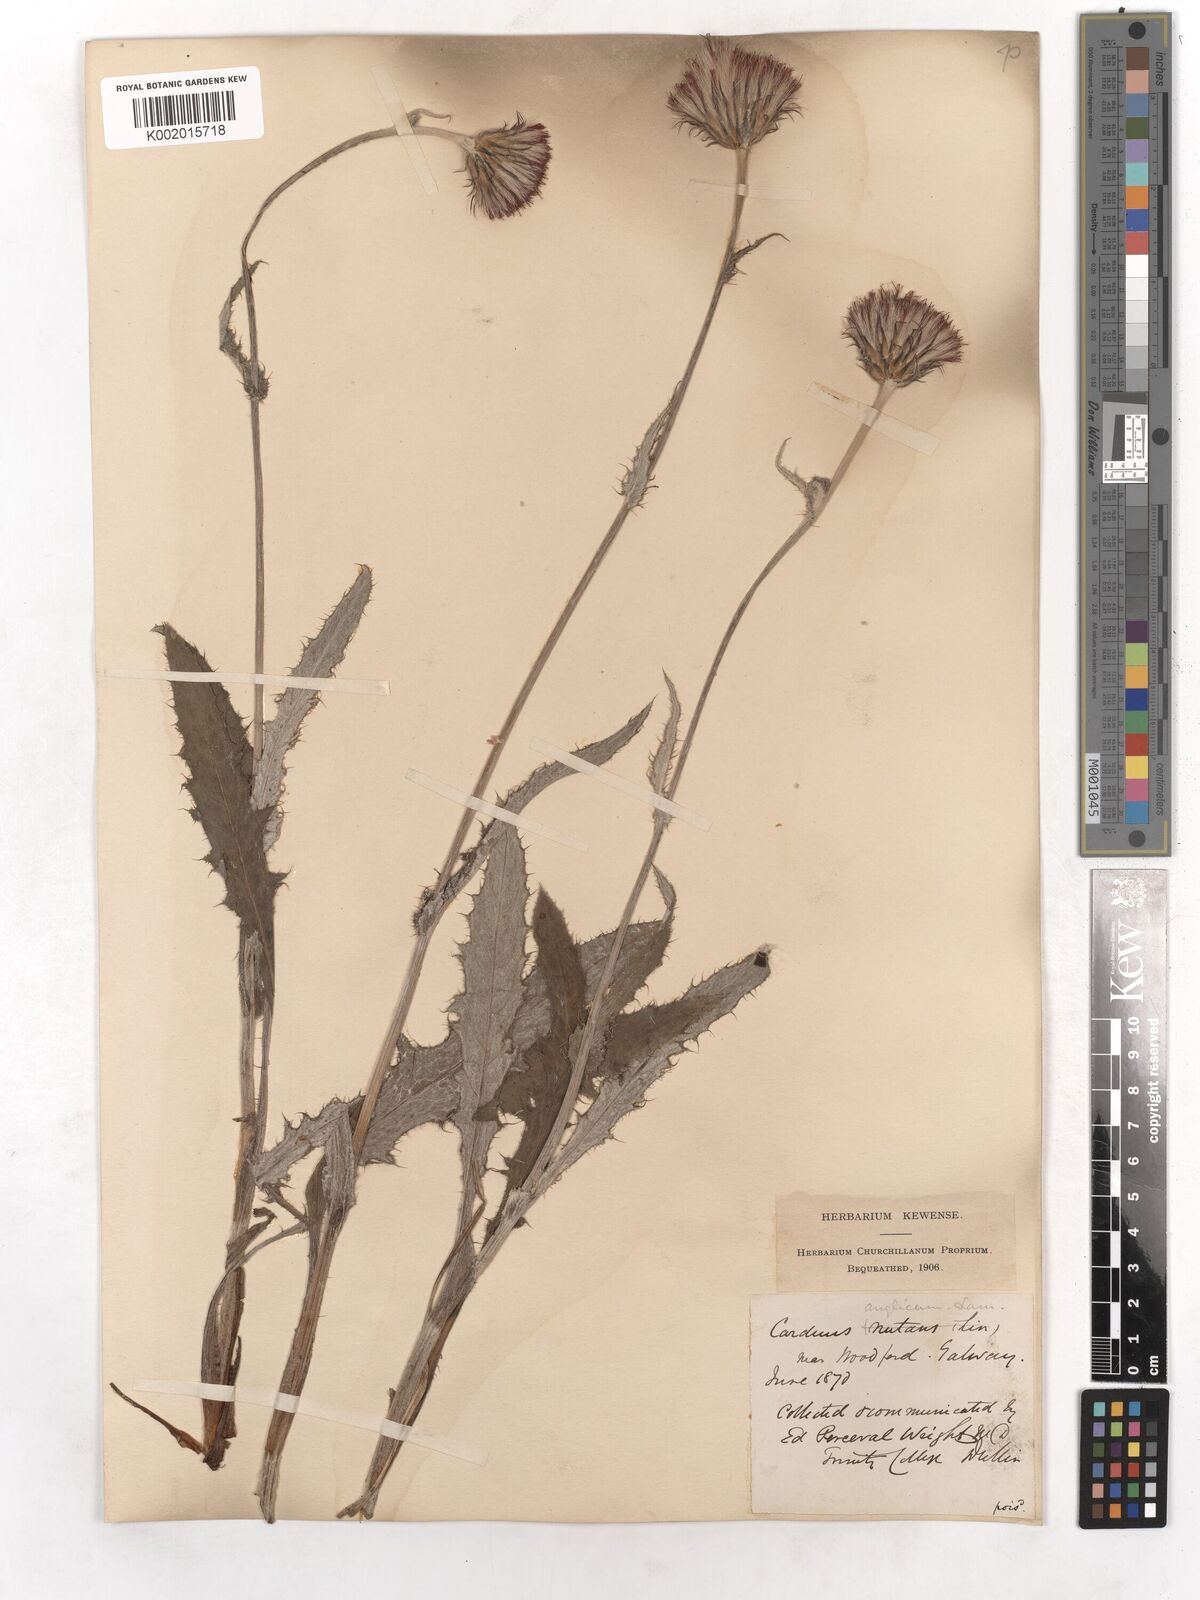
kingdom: Plantae
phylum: Tracheophyta
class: Magnoliopsida
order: Asterales
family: Asteraceae
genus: Cirsium
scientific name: Cirsium dissectum
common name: Meadow thistle
